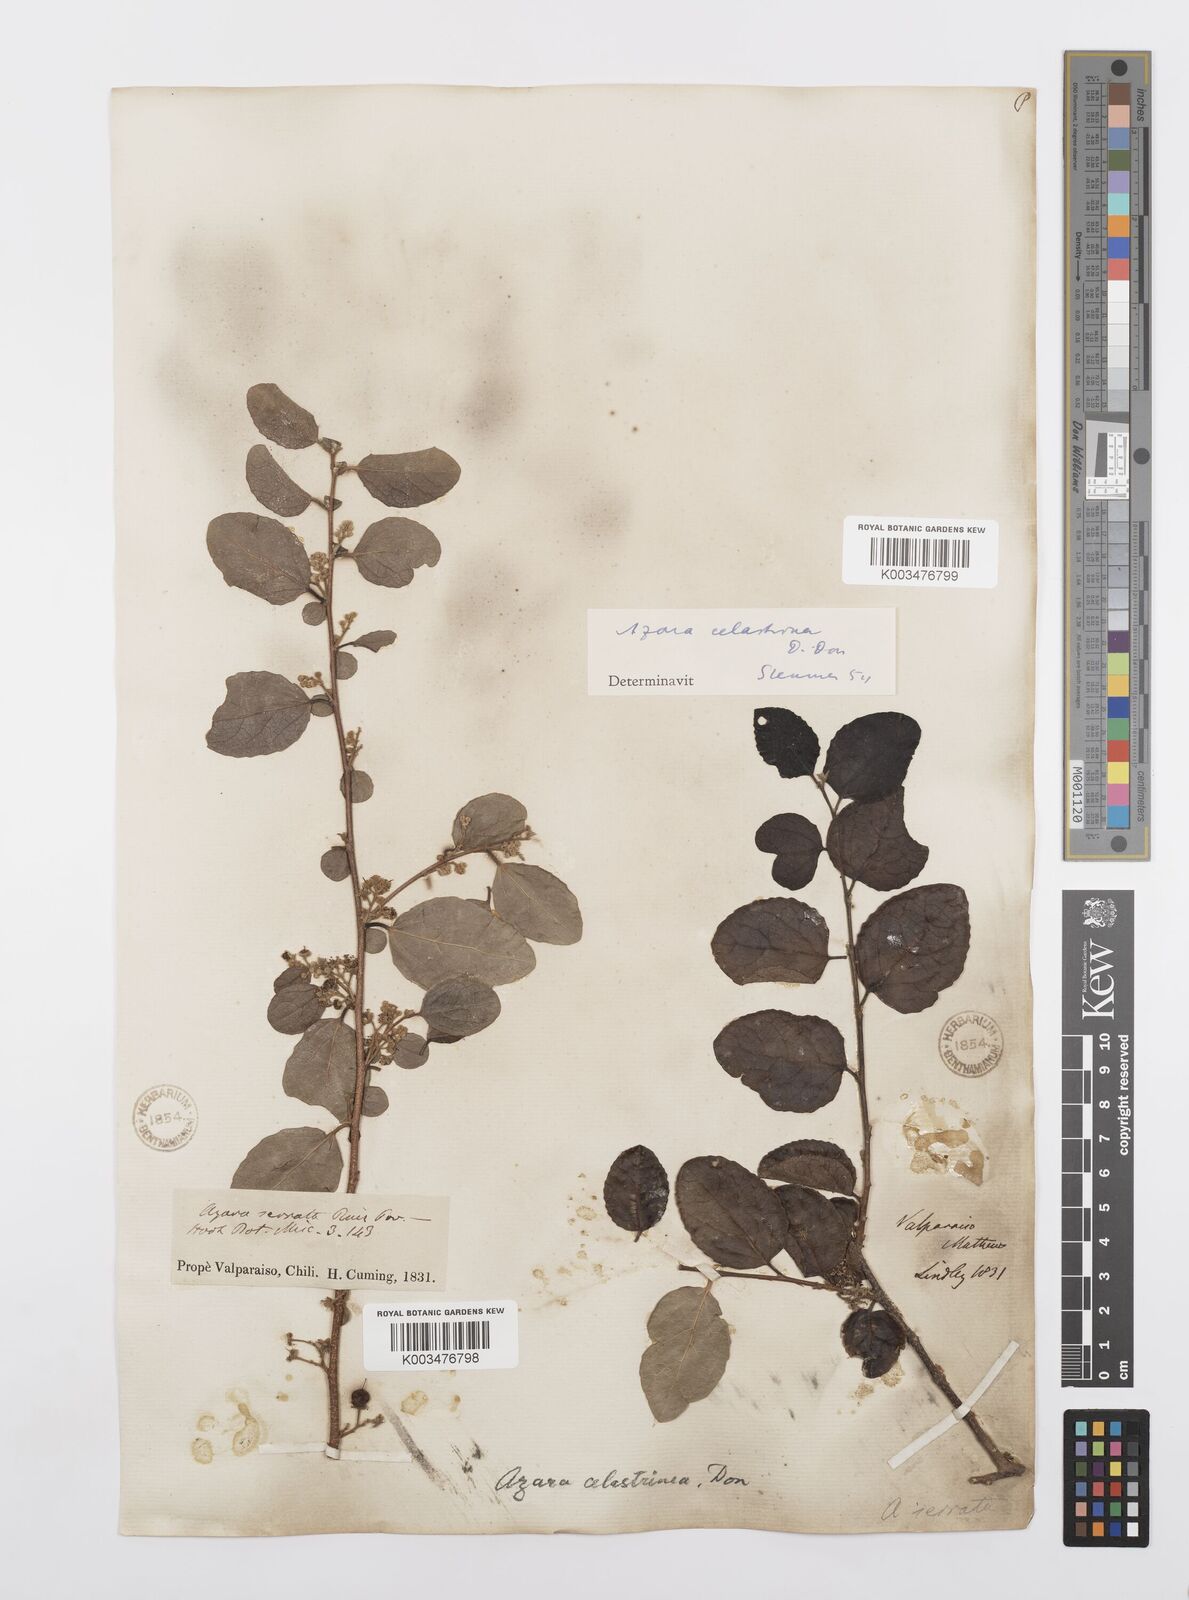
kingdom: Plantae
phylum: Tracheophyta
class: Magnoliopsida
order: Malpighiales
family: Salicaceae
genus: Azara
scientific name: Azara celastrina
